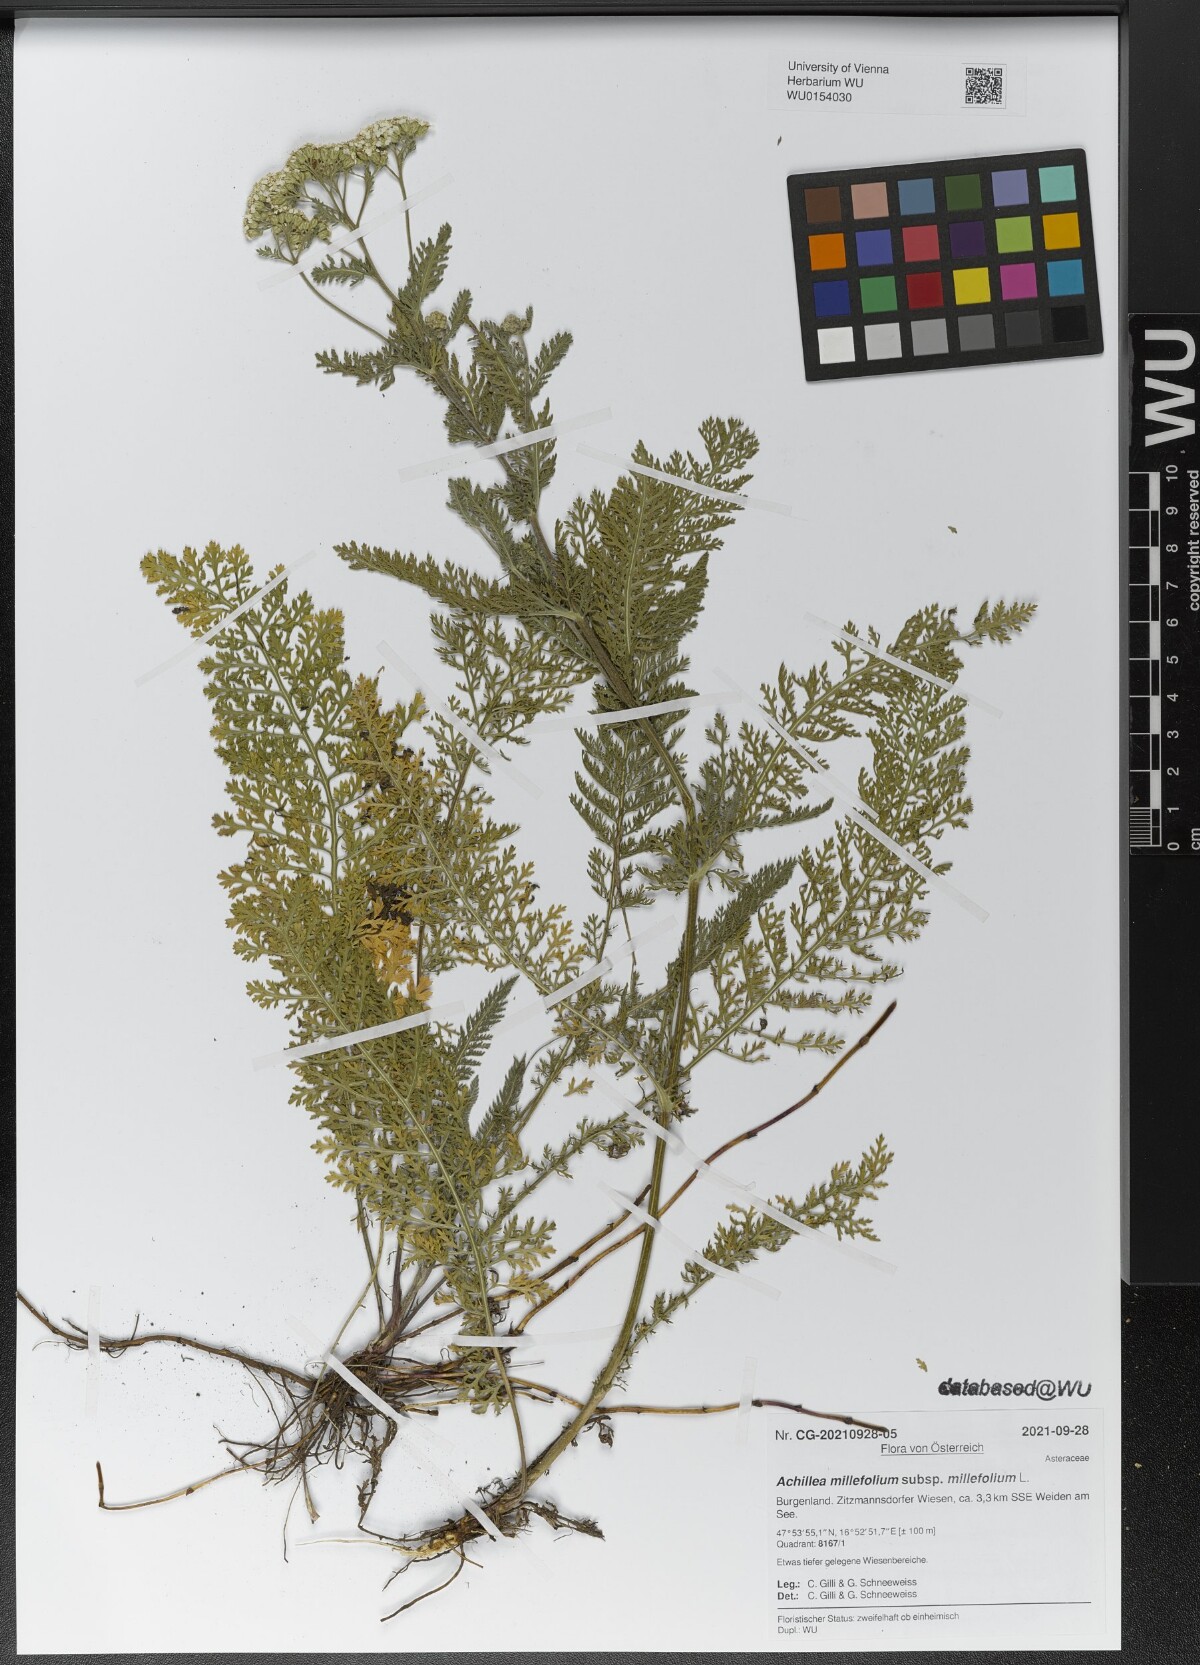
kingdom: Plantae
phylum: Tracheophyta
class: Magnoliopsida
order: Asterales
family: Asteraceae
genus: Achillea
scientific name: Achillea millefolium
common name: Yarrow
